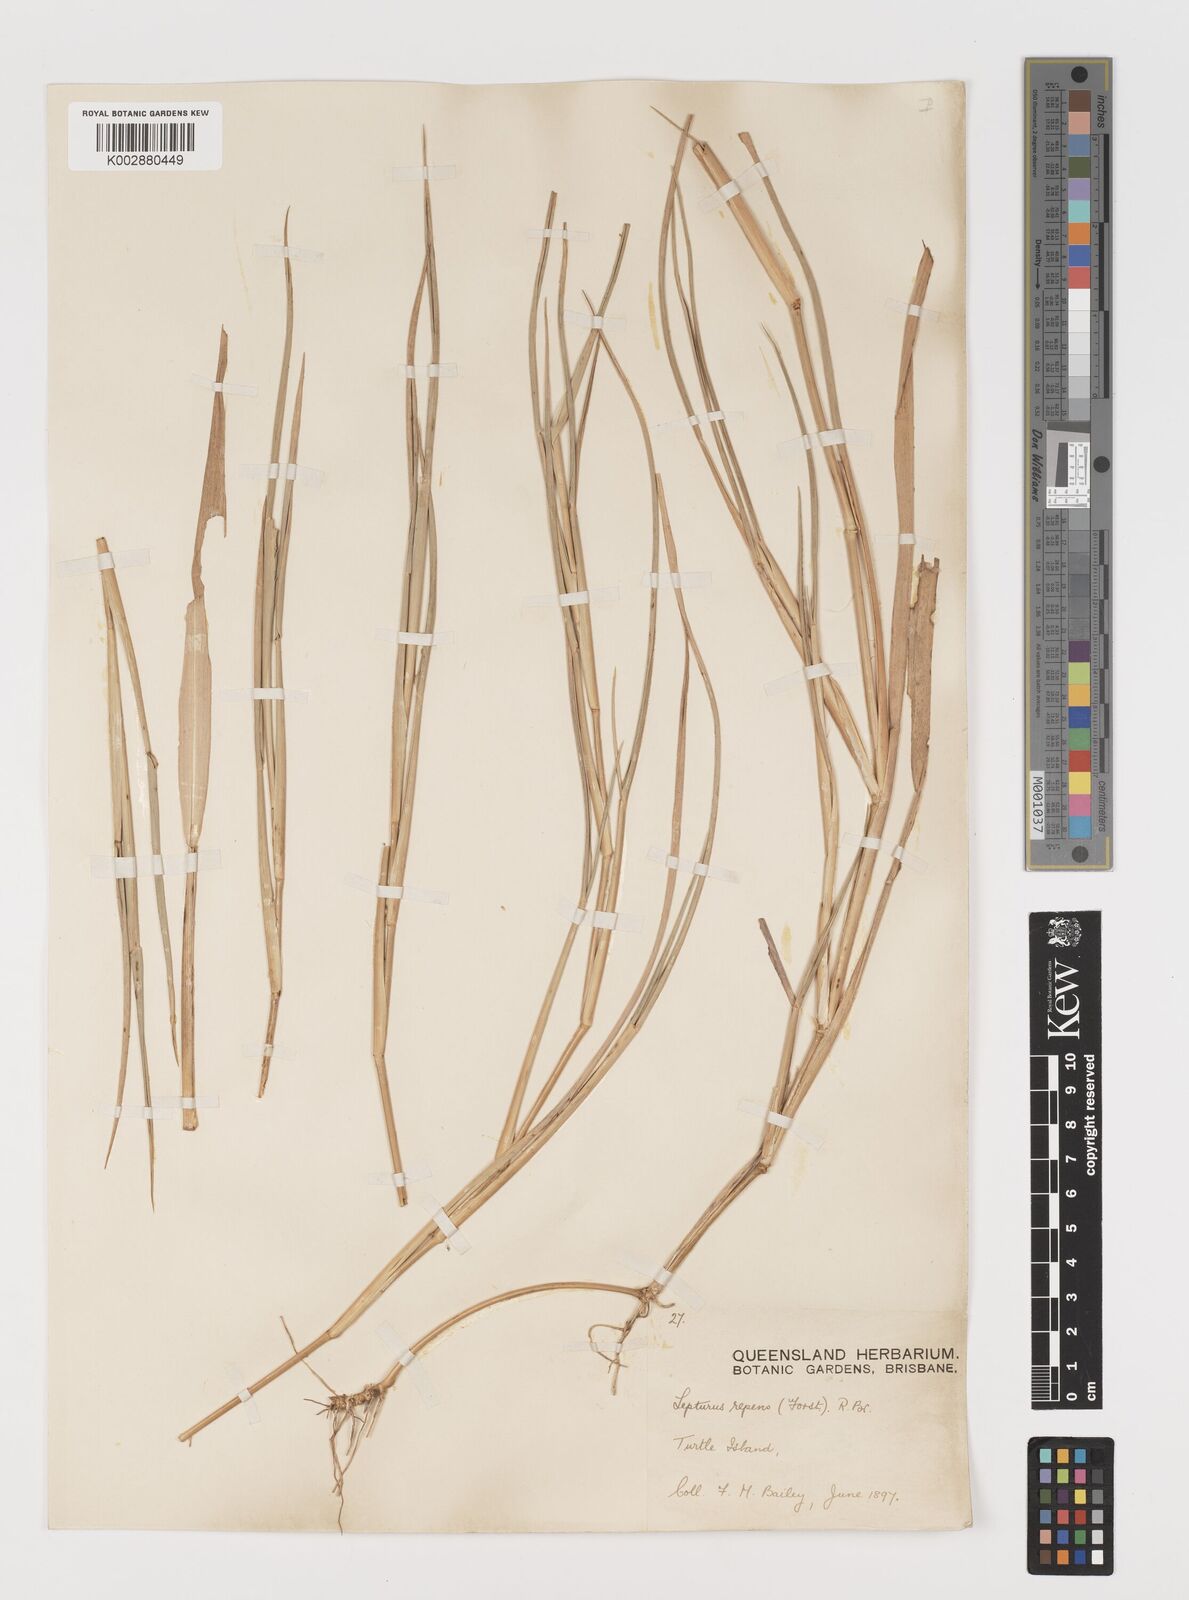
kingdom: Plantae
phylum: Tracheophyta
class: Liliopsida
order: Poales
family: Poaceae
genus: Lepturus
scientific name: Lepturus repens
